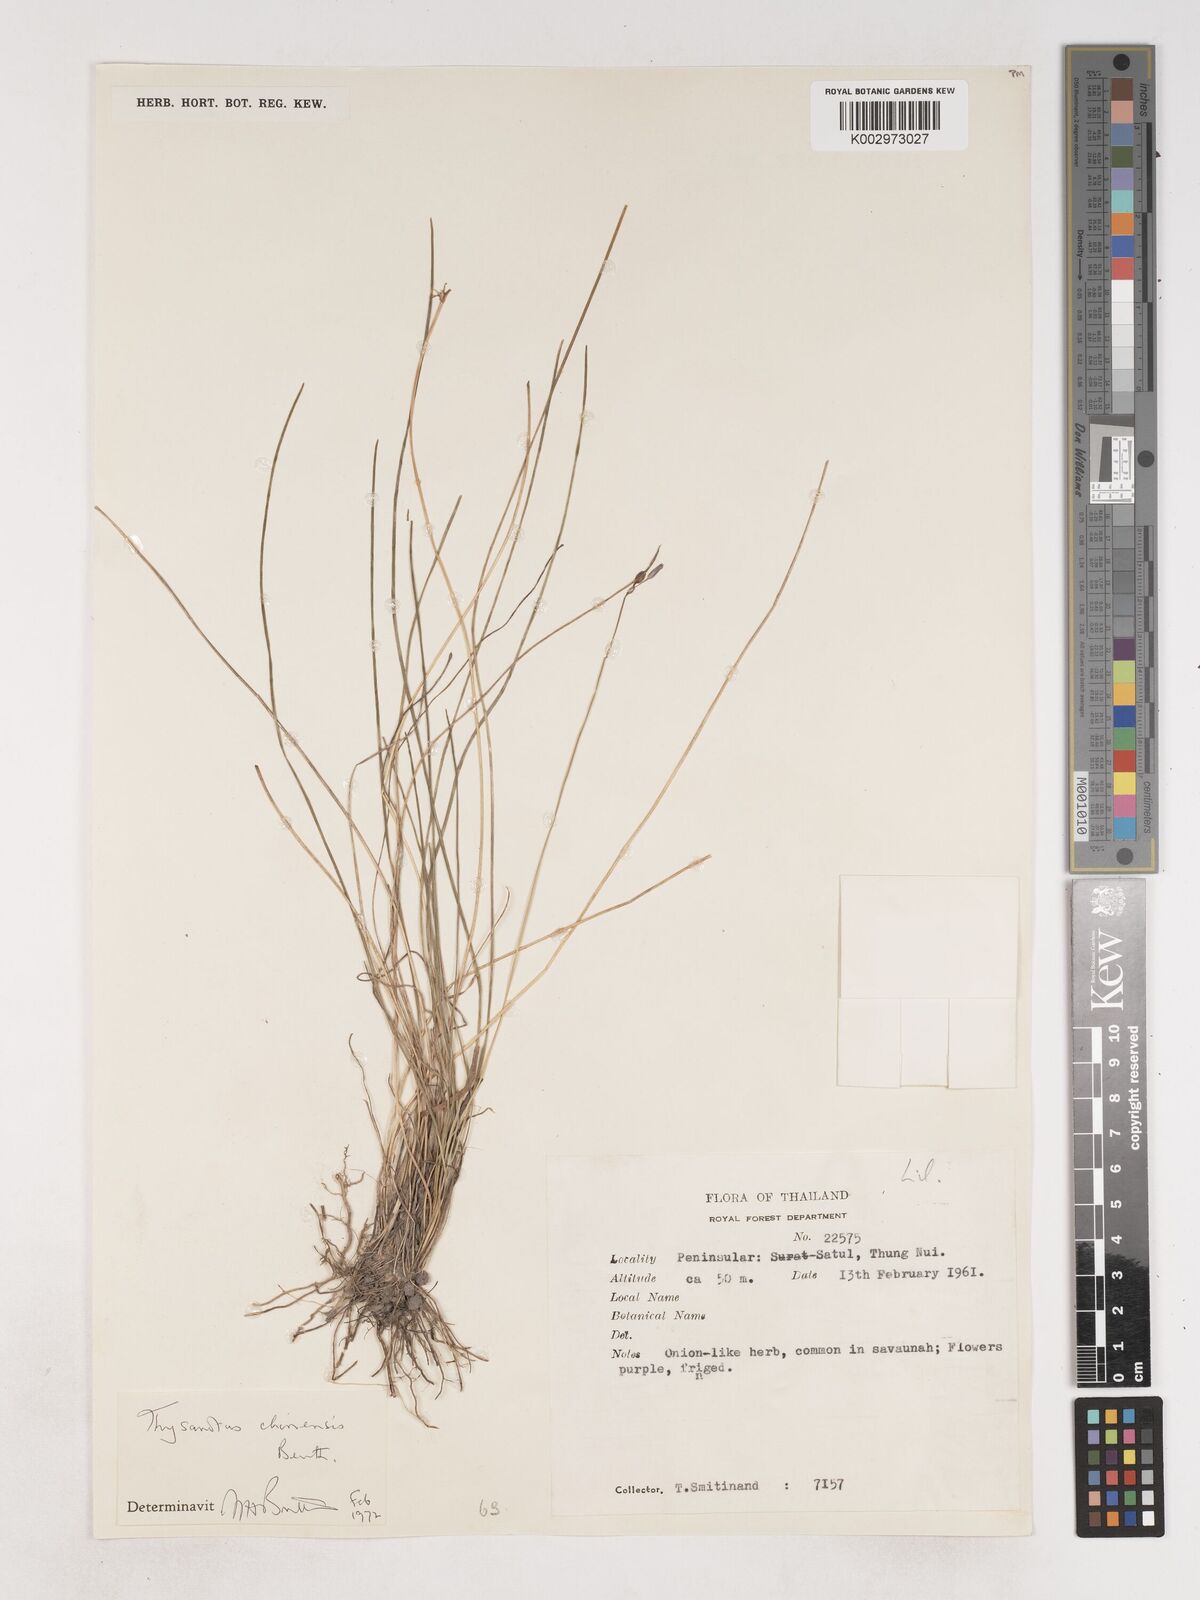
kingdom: Plantae
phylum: Tracheophyta
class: Liliopsida
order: Asparagales
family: Asparagaceae
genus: Thysanotus
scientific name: Thysanotus chinensis
